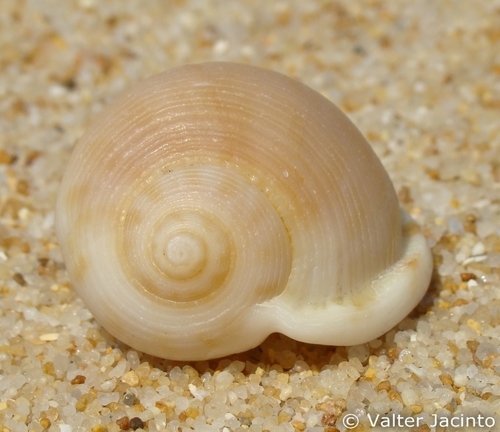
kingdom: Animalia
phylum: Mollusca
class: Gastropoda
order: Littorinimorpha
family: Cassidae
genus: Semicassis
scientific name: Semicassis saburon
